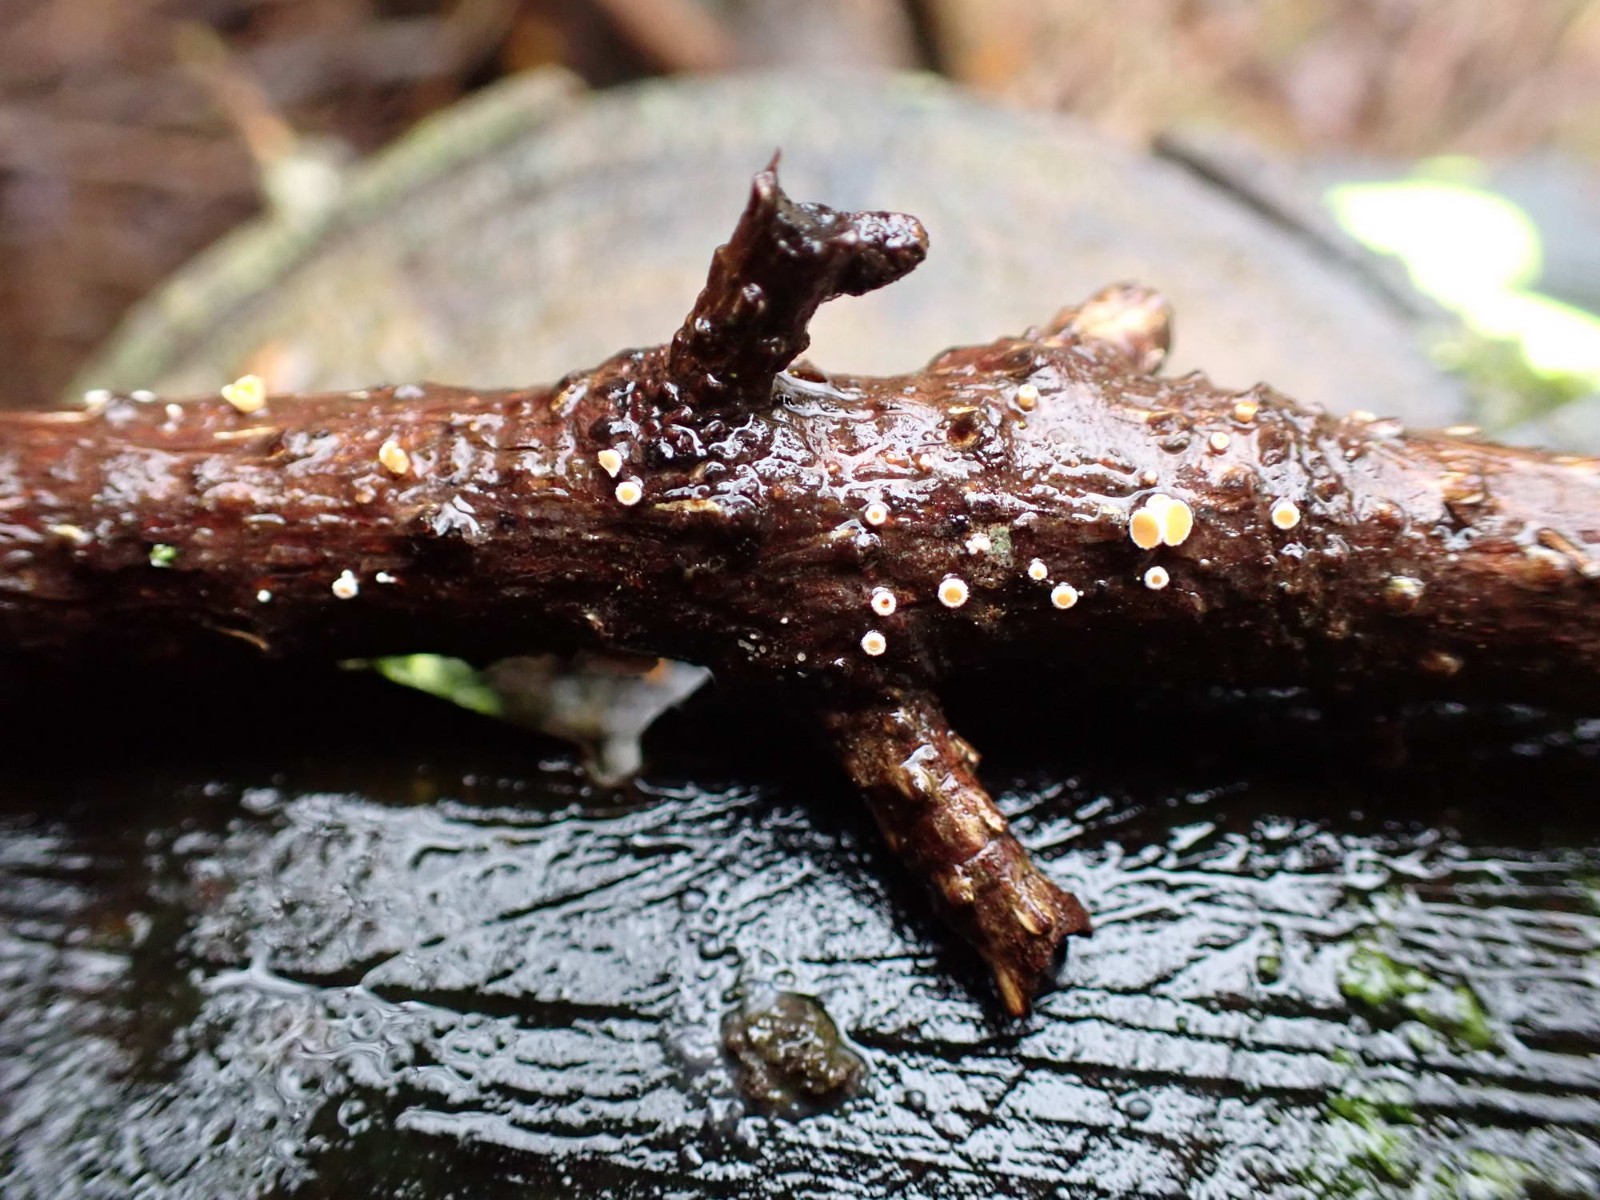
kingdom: Fungi
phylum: Ascomycota
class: Leotiomycetes
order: Helotiales
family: Lachnaceae
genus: Lachnellula
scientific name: Lachnellula occidentalis
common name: Larch disco
